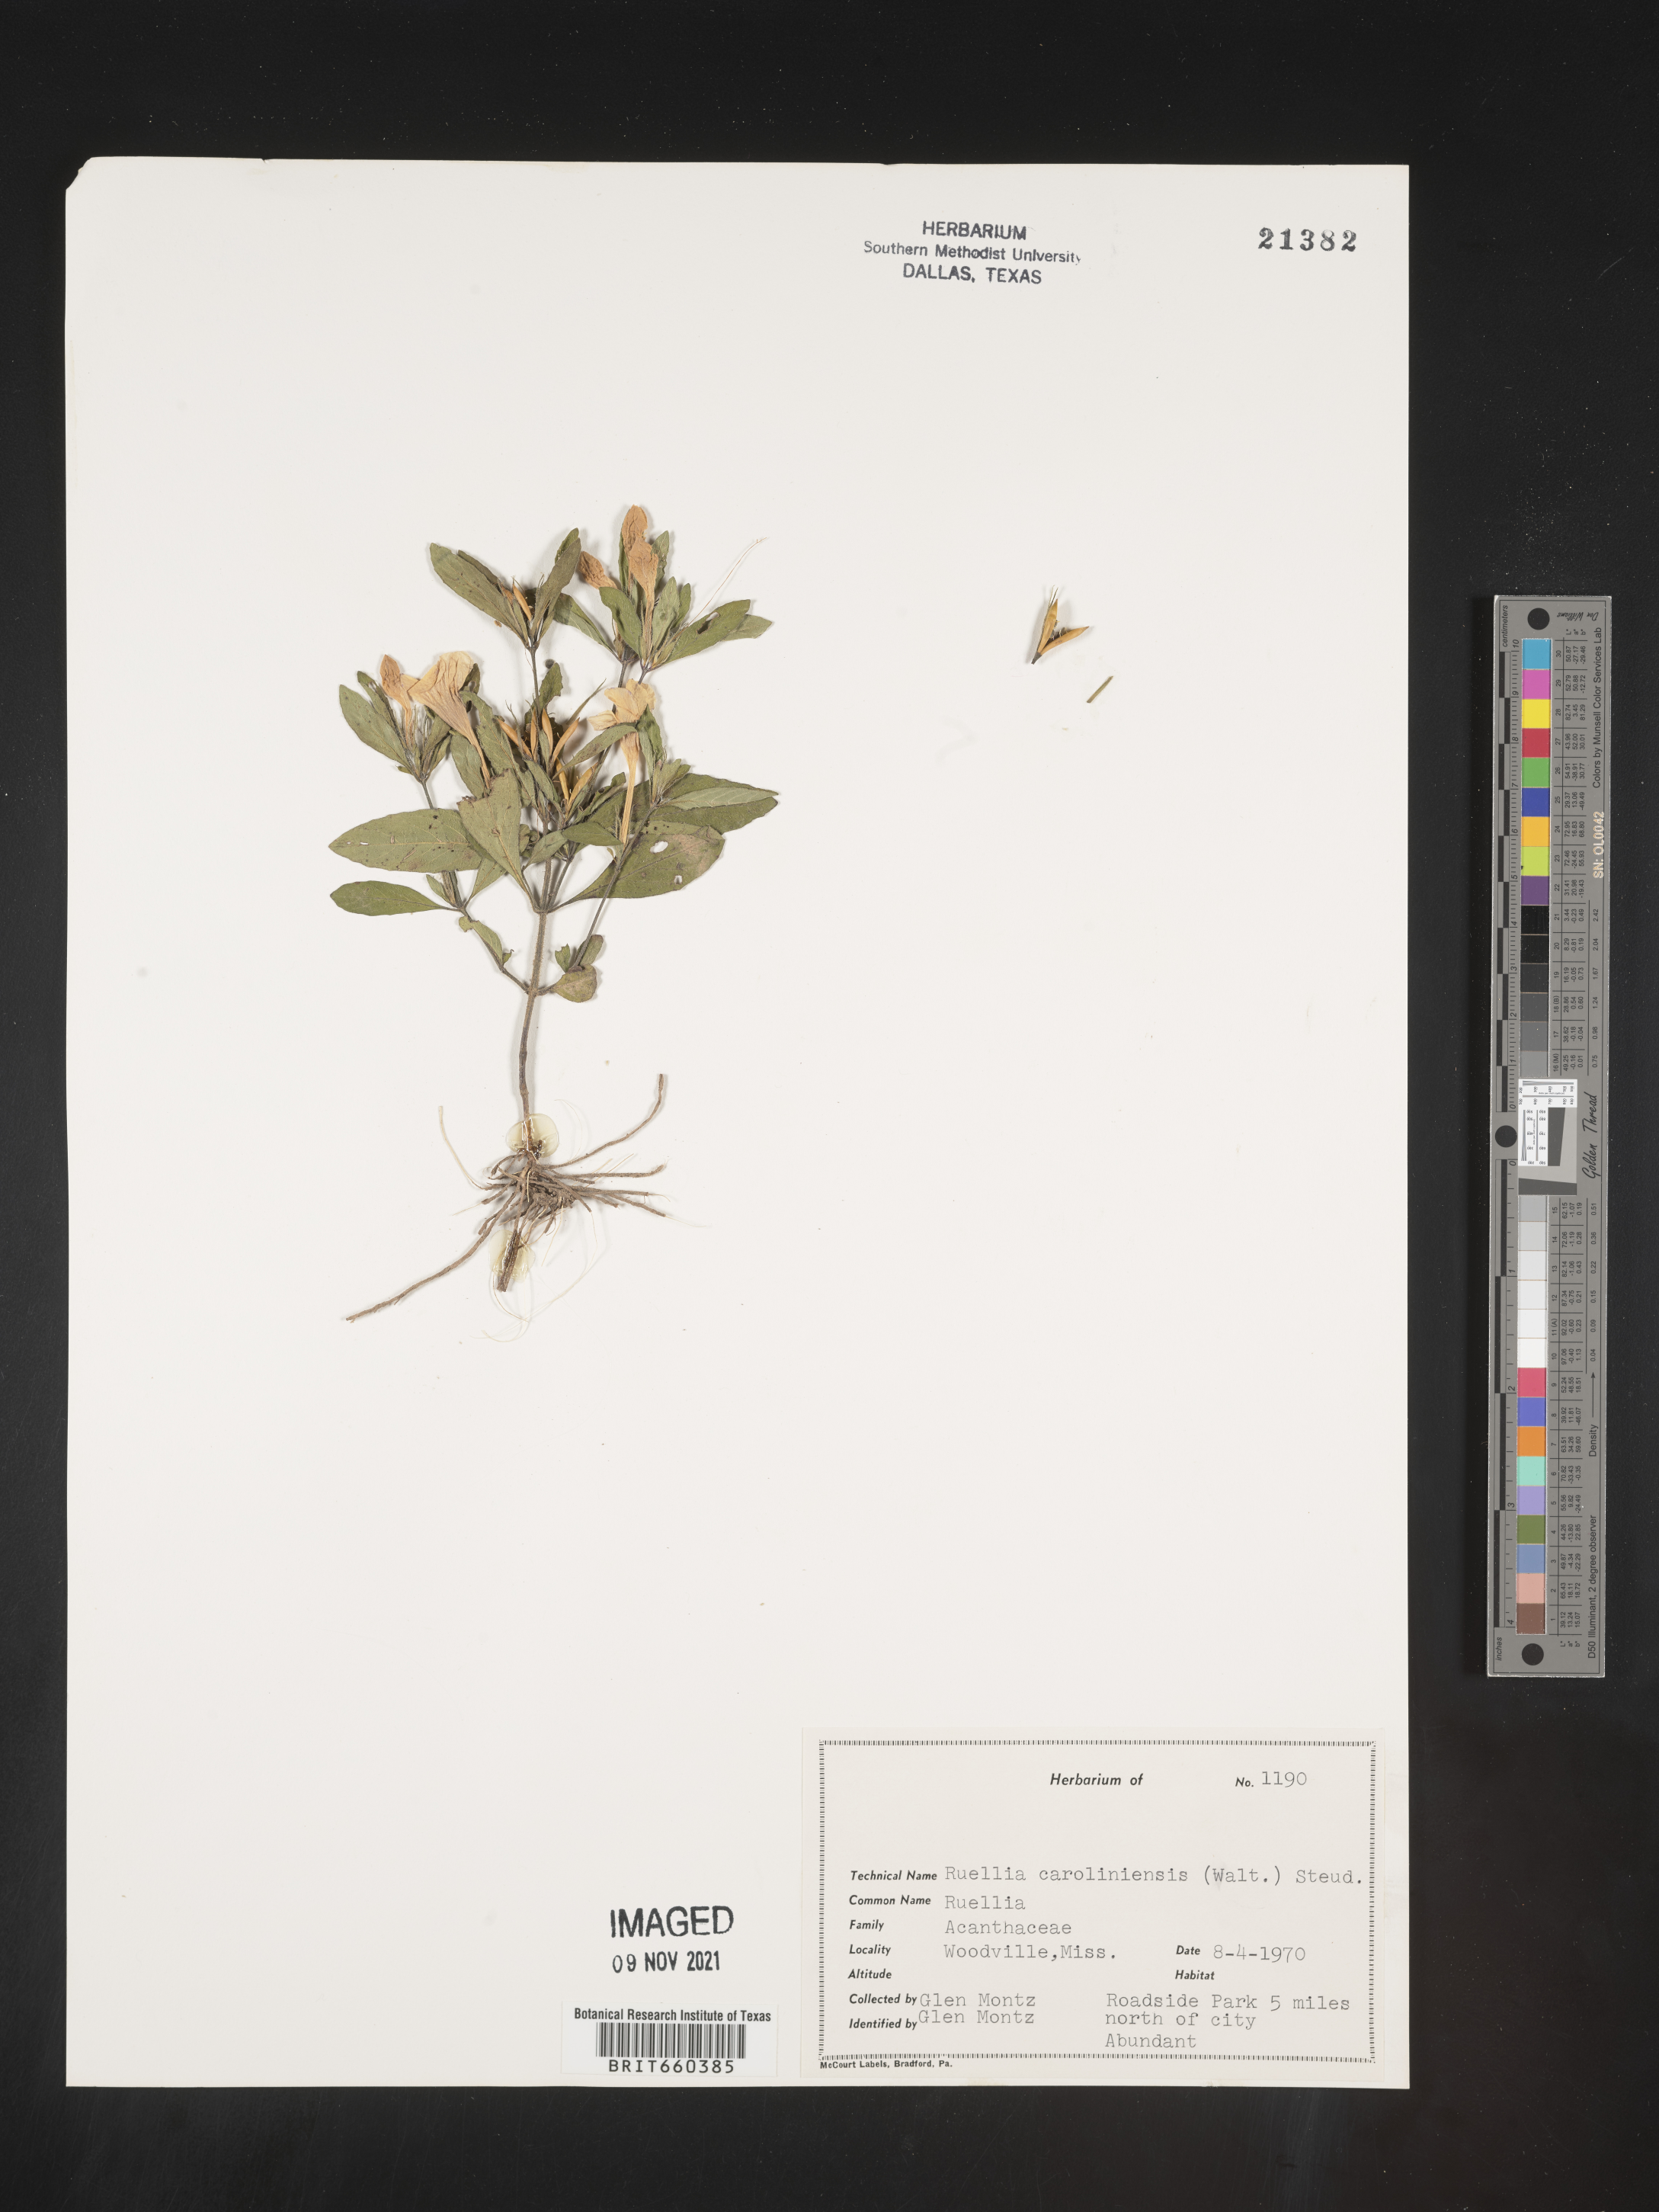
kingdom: Plantae
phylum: Tracheophyta
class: Magnoliopsida
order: Lamiales
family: Acanthaceae
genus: Ruellia
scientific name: Ruellia caroliniensis
